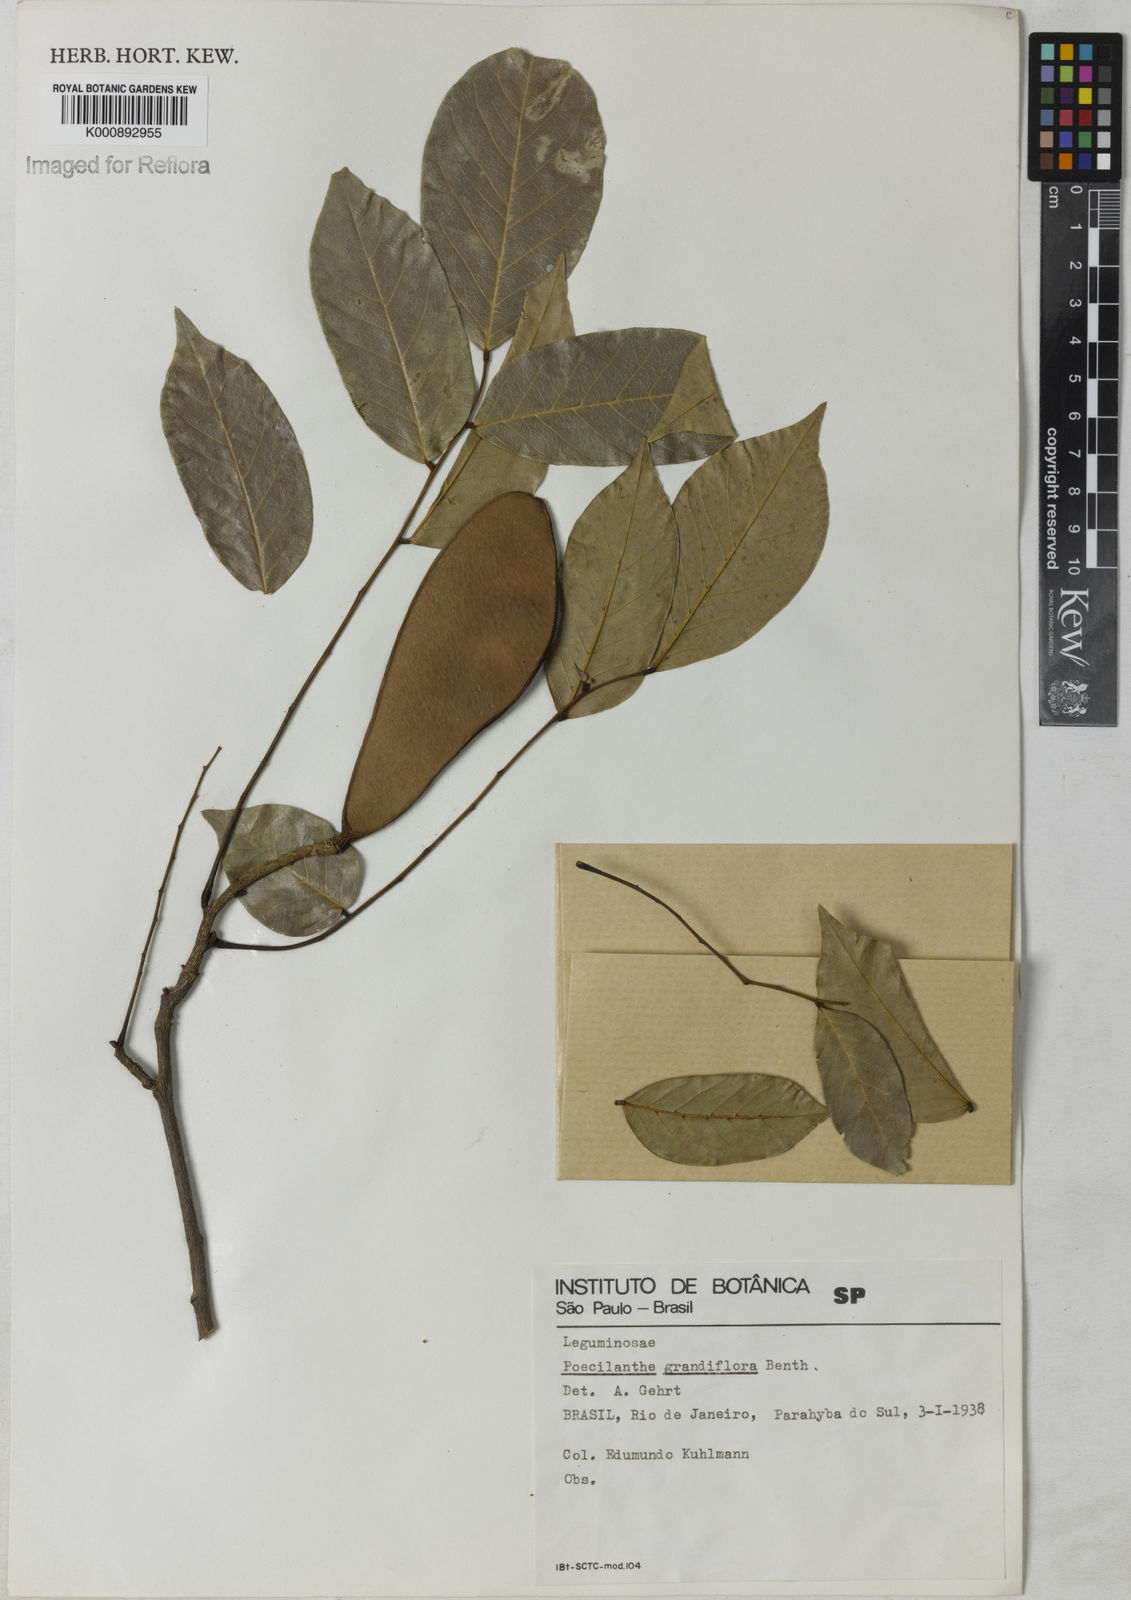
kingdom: Plantae
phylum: Tracheophyta
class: Magnoliopsida
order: Fabales
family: Fabaceae
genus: Poecilanthe
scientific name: Poecilanthe grandiflora
